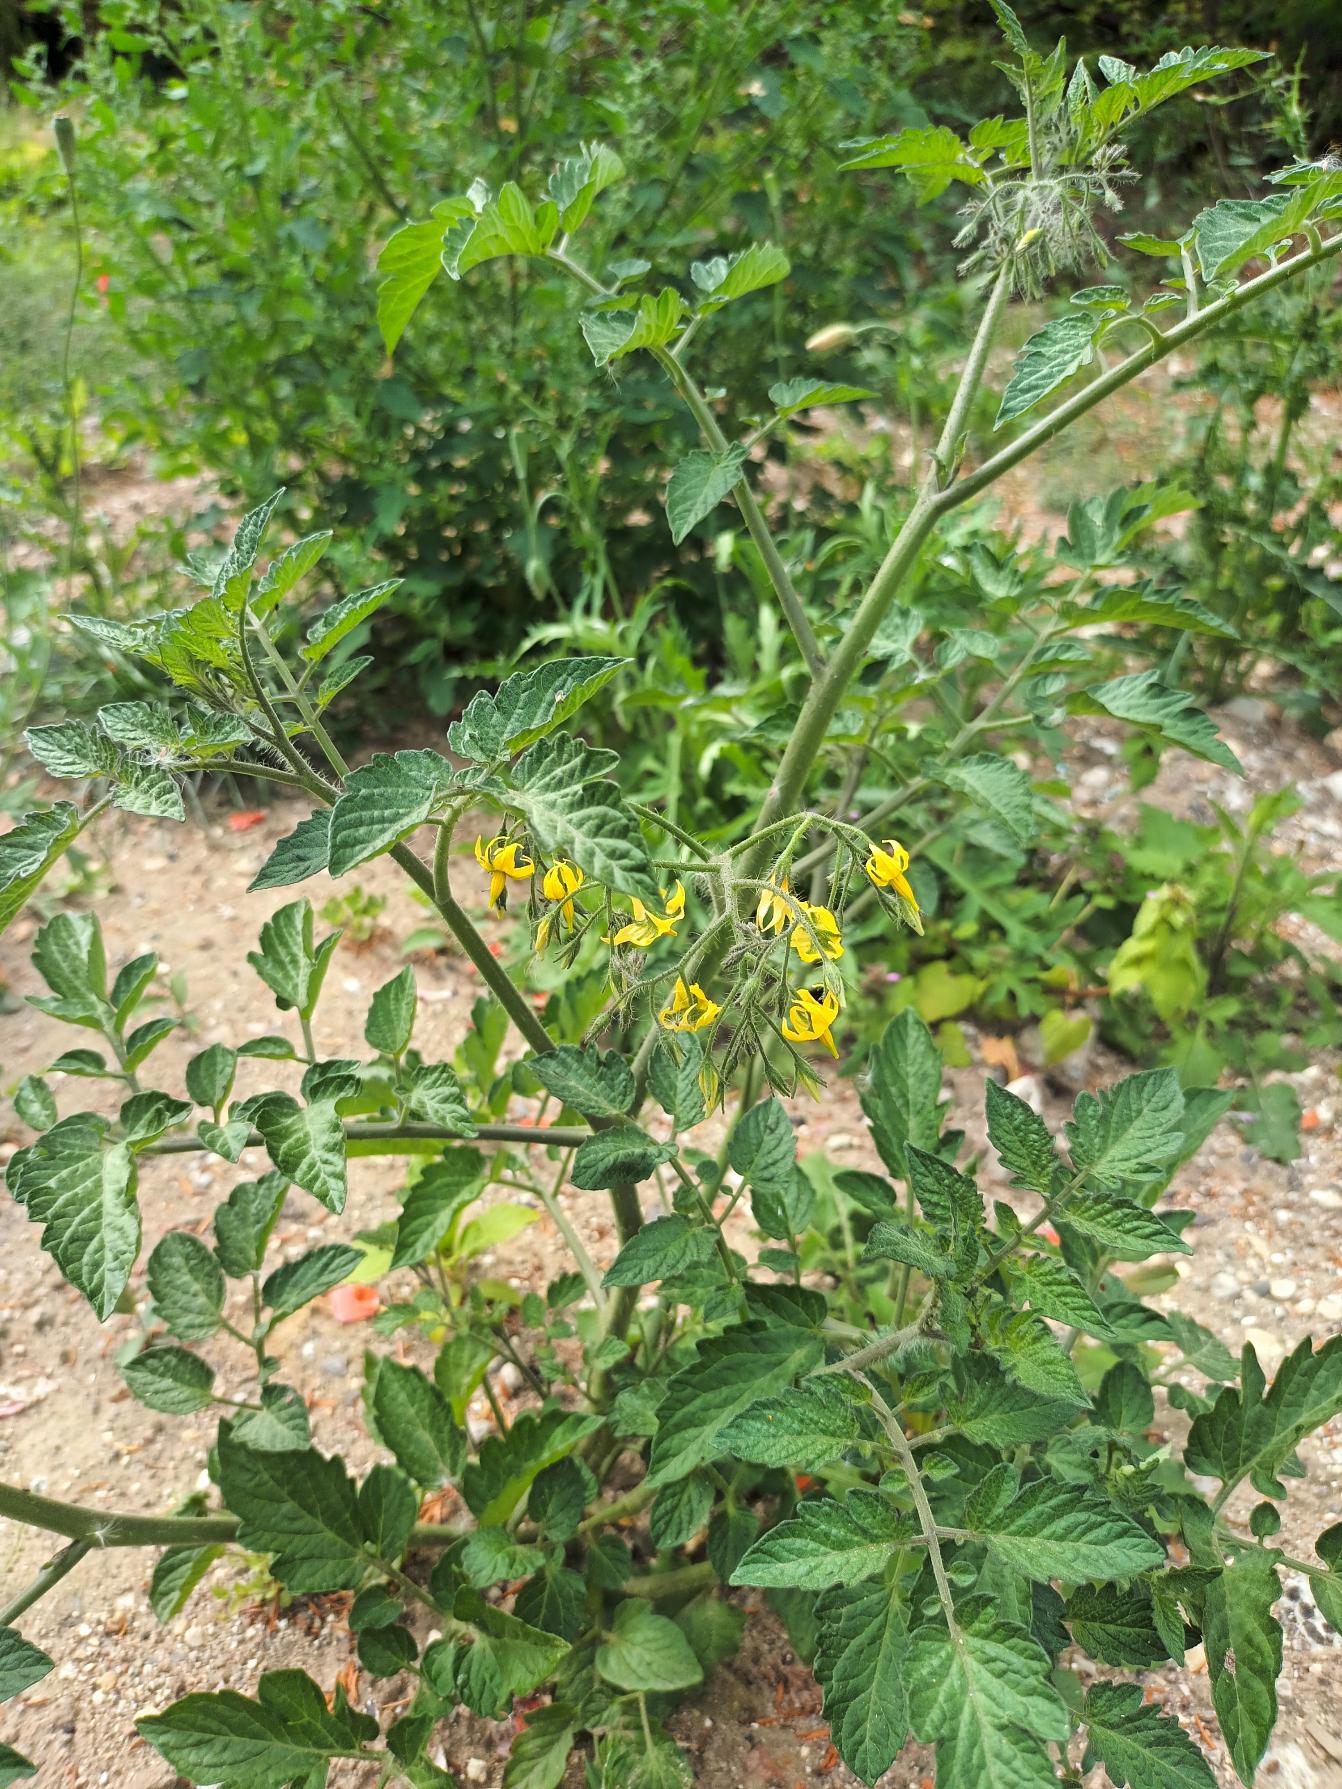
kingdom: Plantae
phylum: Tracheophyta
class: Magnoliopsida
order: Solanales
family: Solanaceae
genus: Solanum
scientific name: Solanum lycopersicum
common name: Tomat
